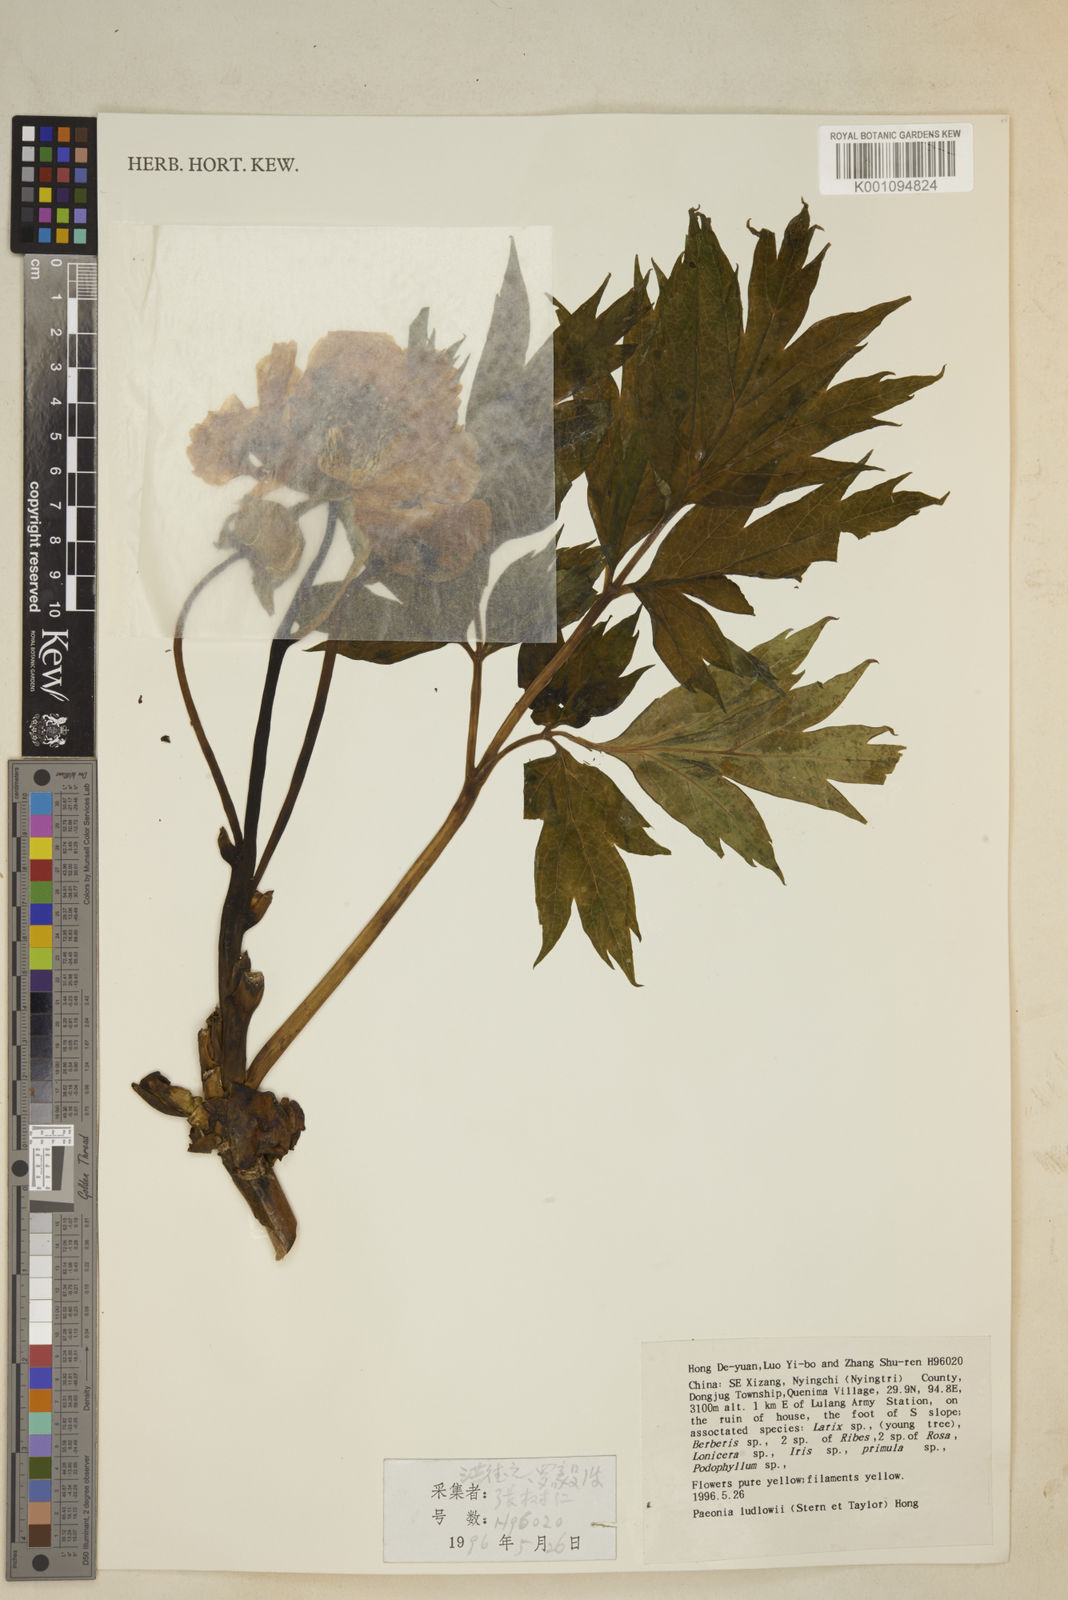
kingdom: Plantae
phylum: Tracheophyta
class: Magnoliopsida
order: Saxifragales
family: Paeoniaceae
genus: Paeonia
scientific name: Paeonia delavayi
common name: Dian mu dan
